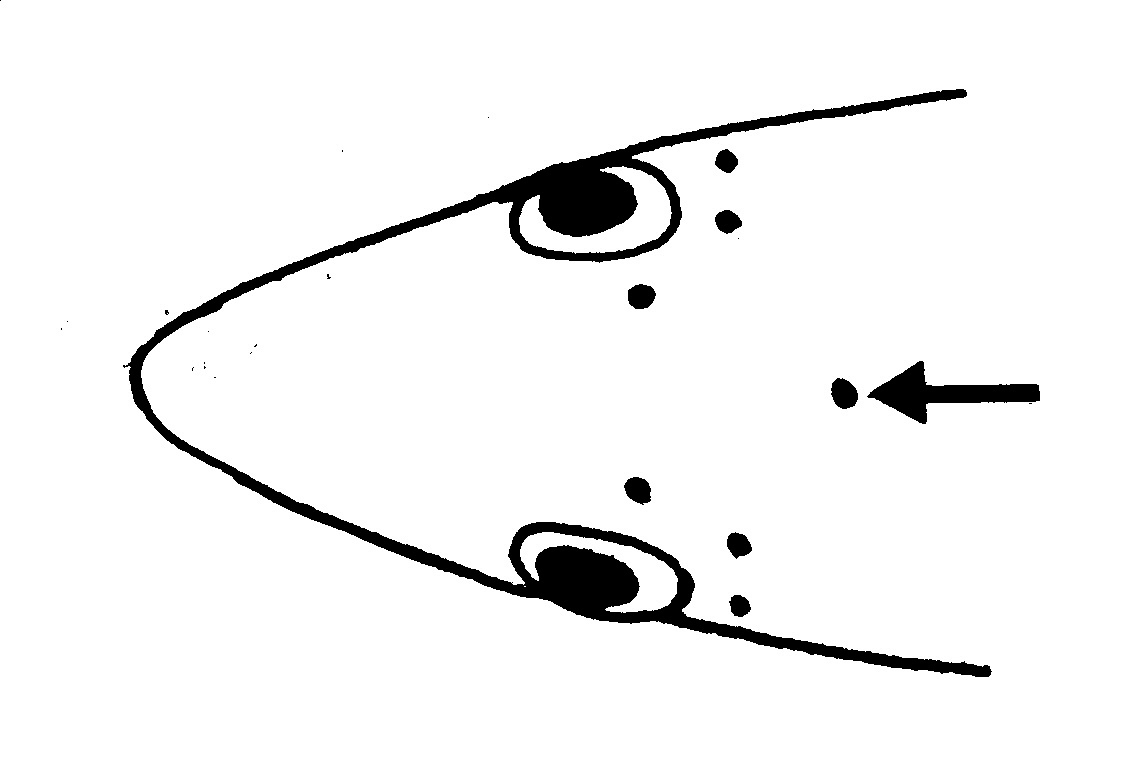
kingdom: Animalia
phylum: Chordata
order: Anguilliformes
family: Ophichthidae
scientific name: Ophichthidae
